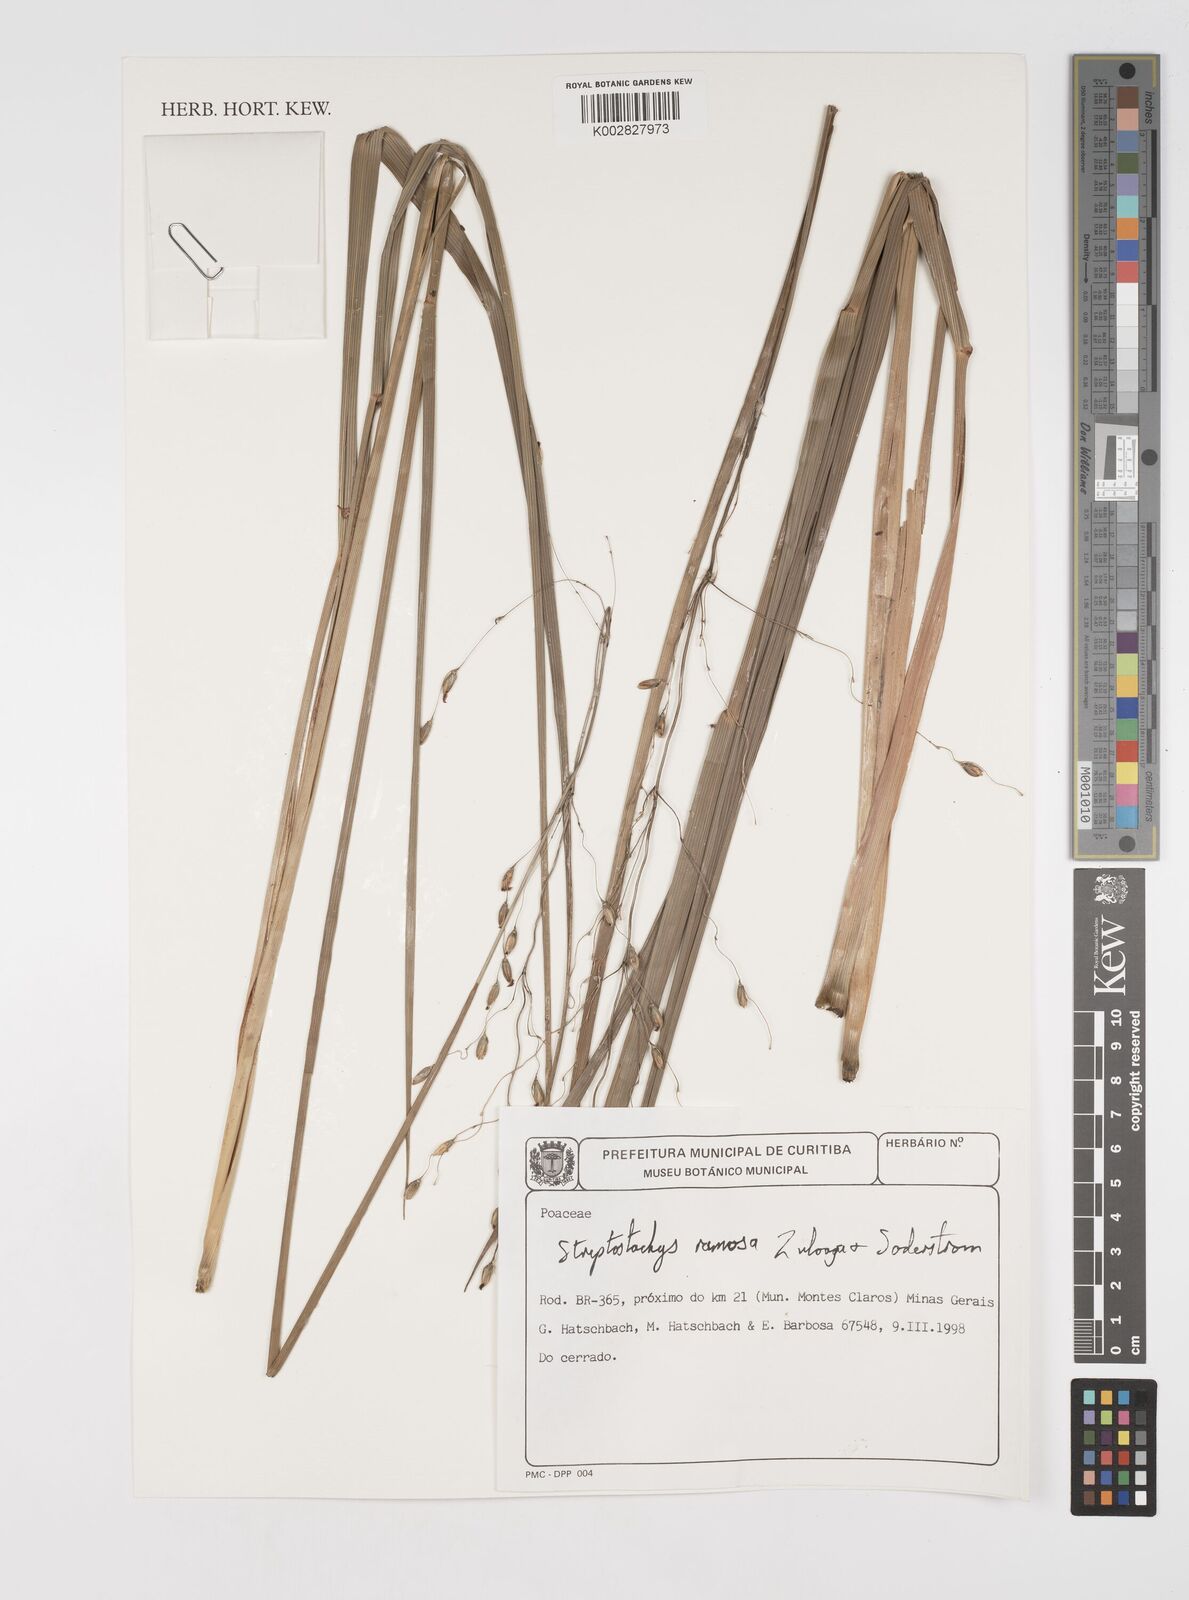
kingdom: Plantae
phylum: Tracheophyta
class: Liliopsida
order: Poales
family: Poaceae
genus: Oncorachis
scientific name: Oncorachis ramosa
